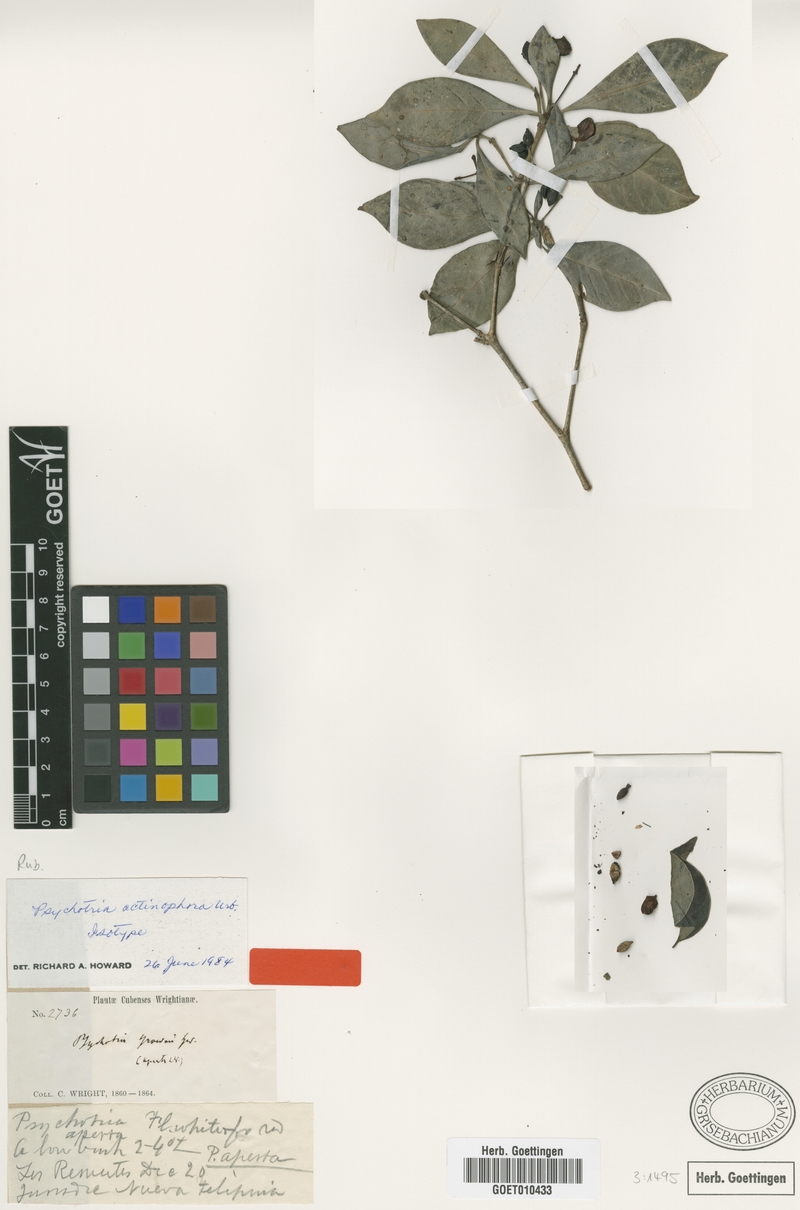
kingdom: Plantae
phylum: Tracheophyta
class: Magnoliopsida
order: Gentianales
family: Rubiaceae
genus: Psychotria
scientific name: Psychotria obovalis
